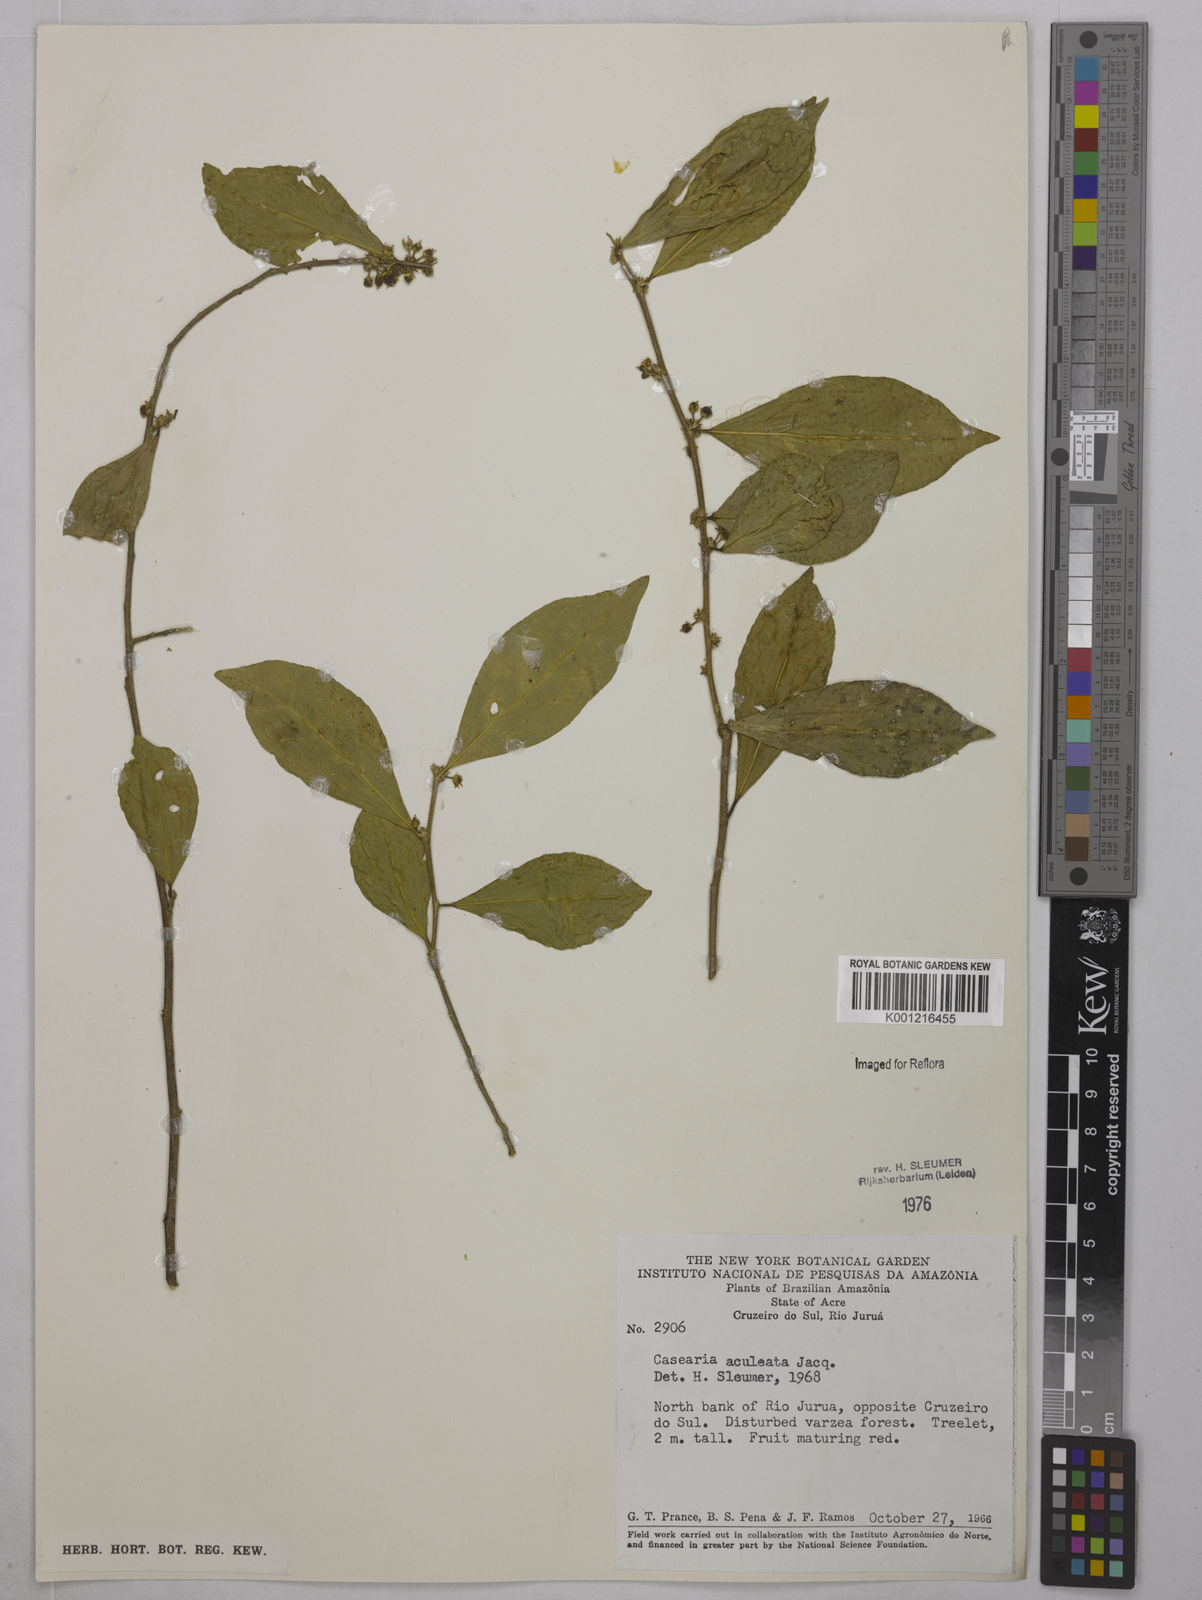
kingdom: Plantae
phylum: Tracheophyta
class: Magnoliopsida
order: Malpighiales
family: Salicaceae
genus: Casearia
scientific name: Casearia aculeata
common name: Cockspur
